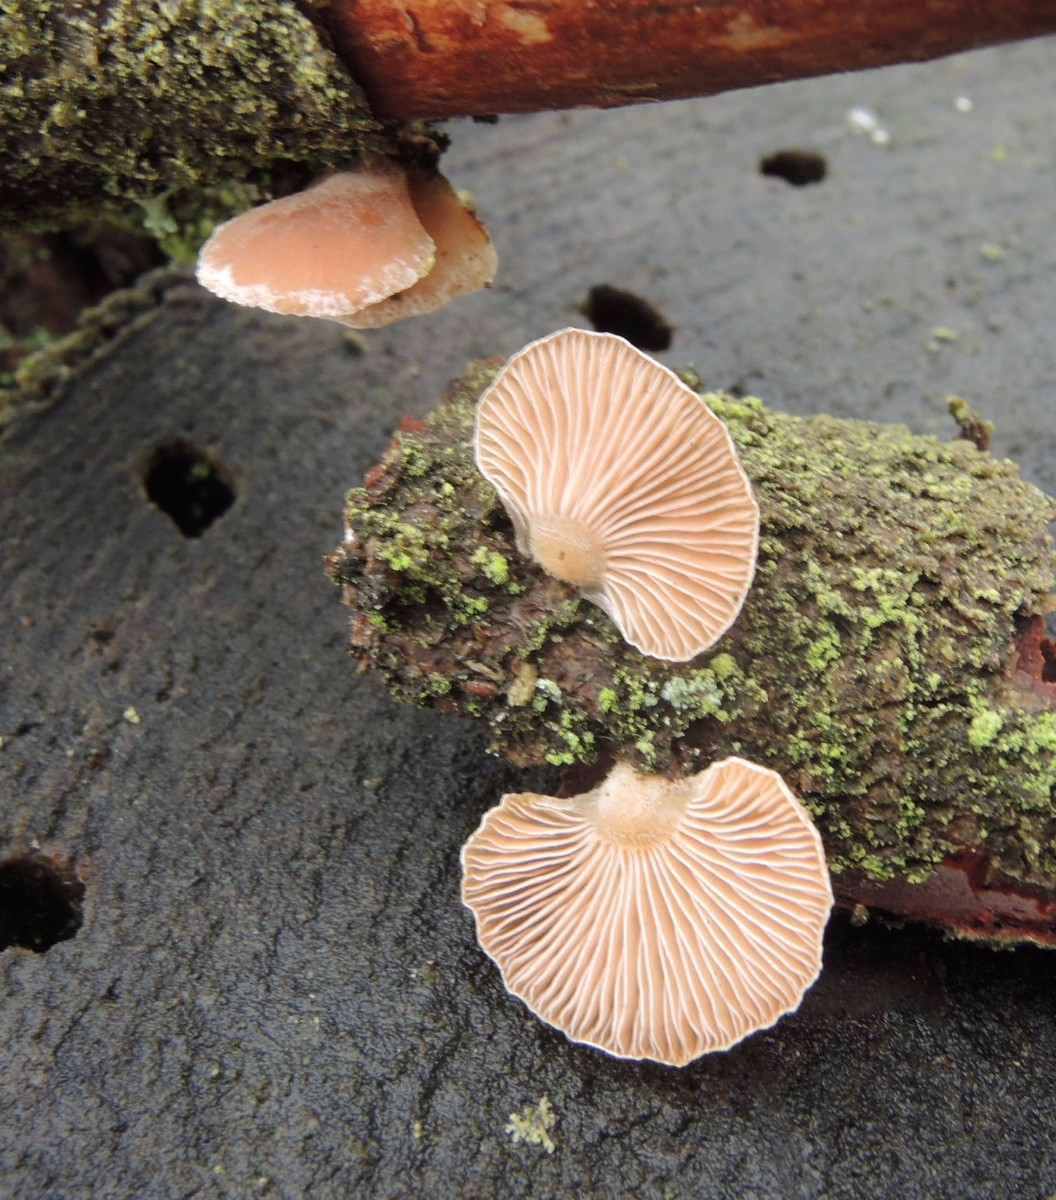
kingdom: Fungi
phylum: Basidiomycota
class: Agaricomycetes
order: Agaricales
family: Mycenaceae
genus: Panellus
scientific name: Panellus mitis
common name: mild epaulethat
